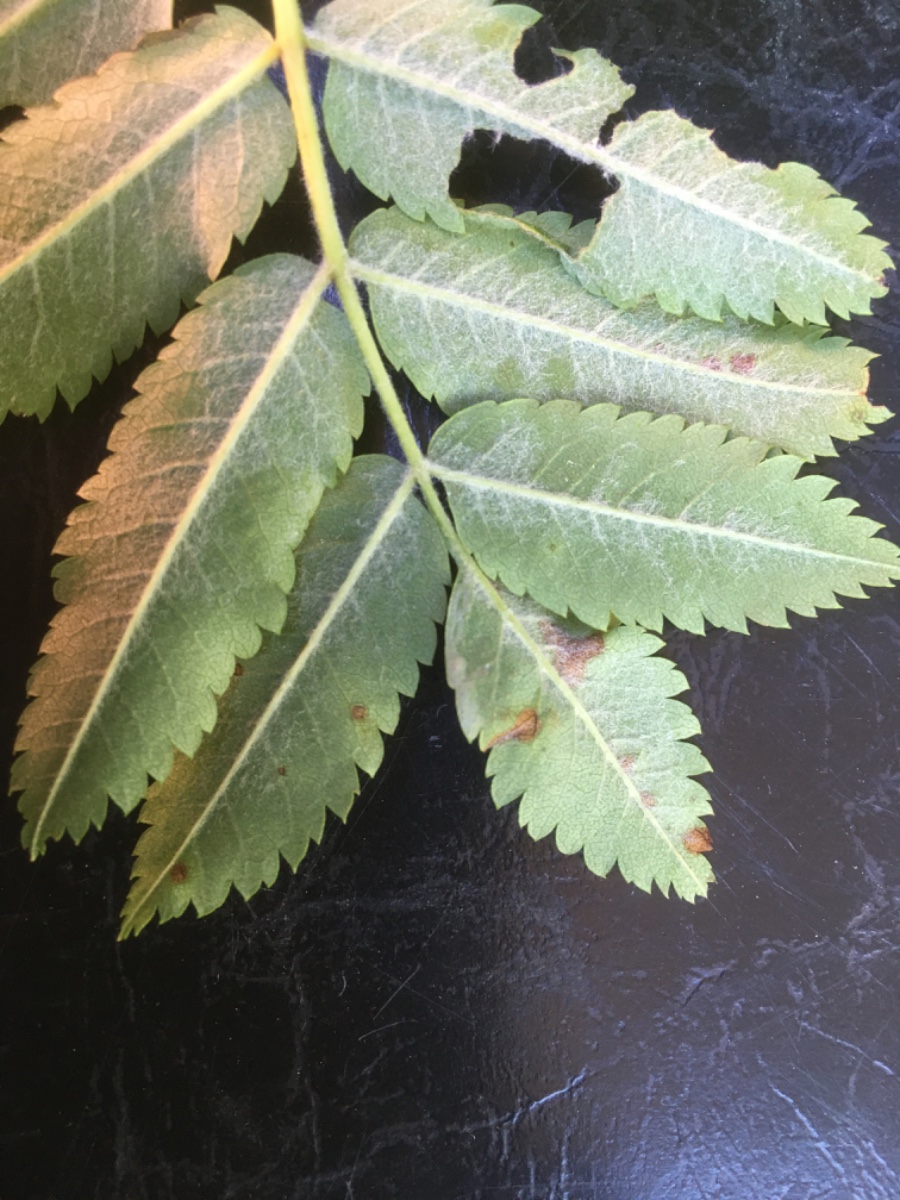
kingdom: Fungi
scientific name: Fungi
